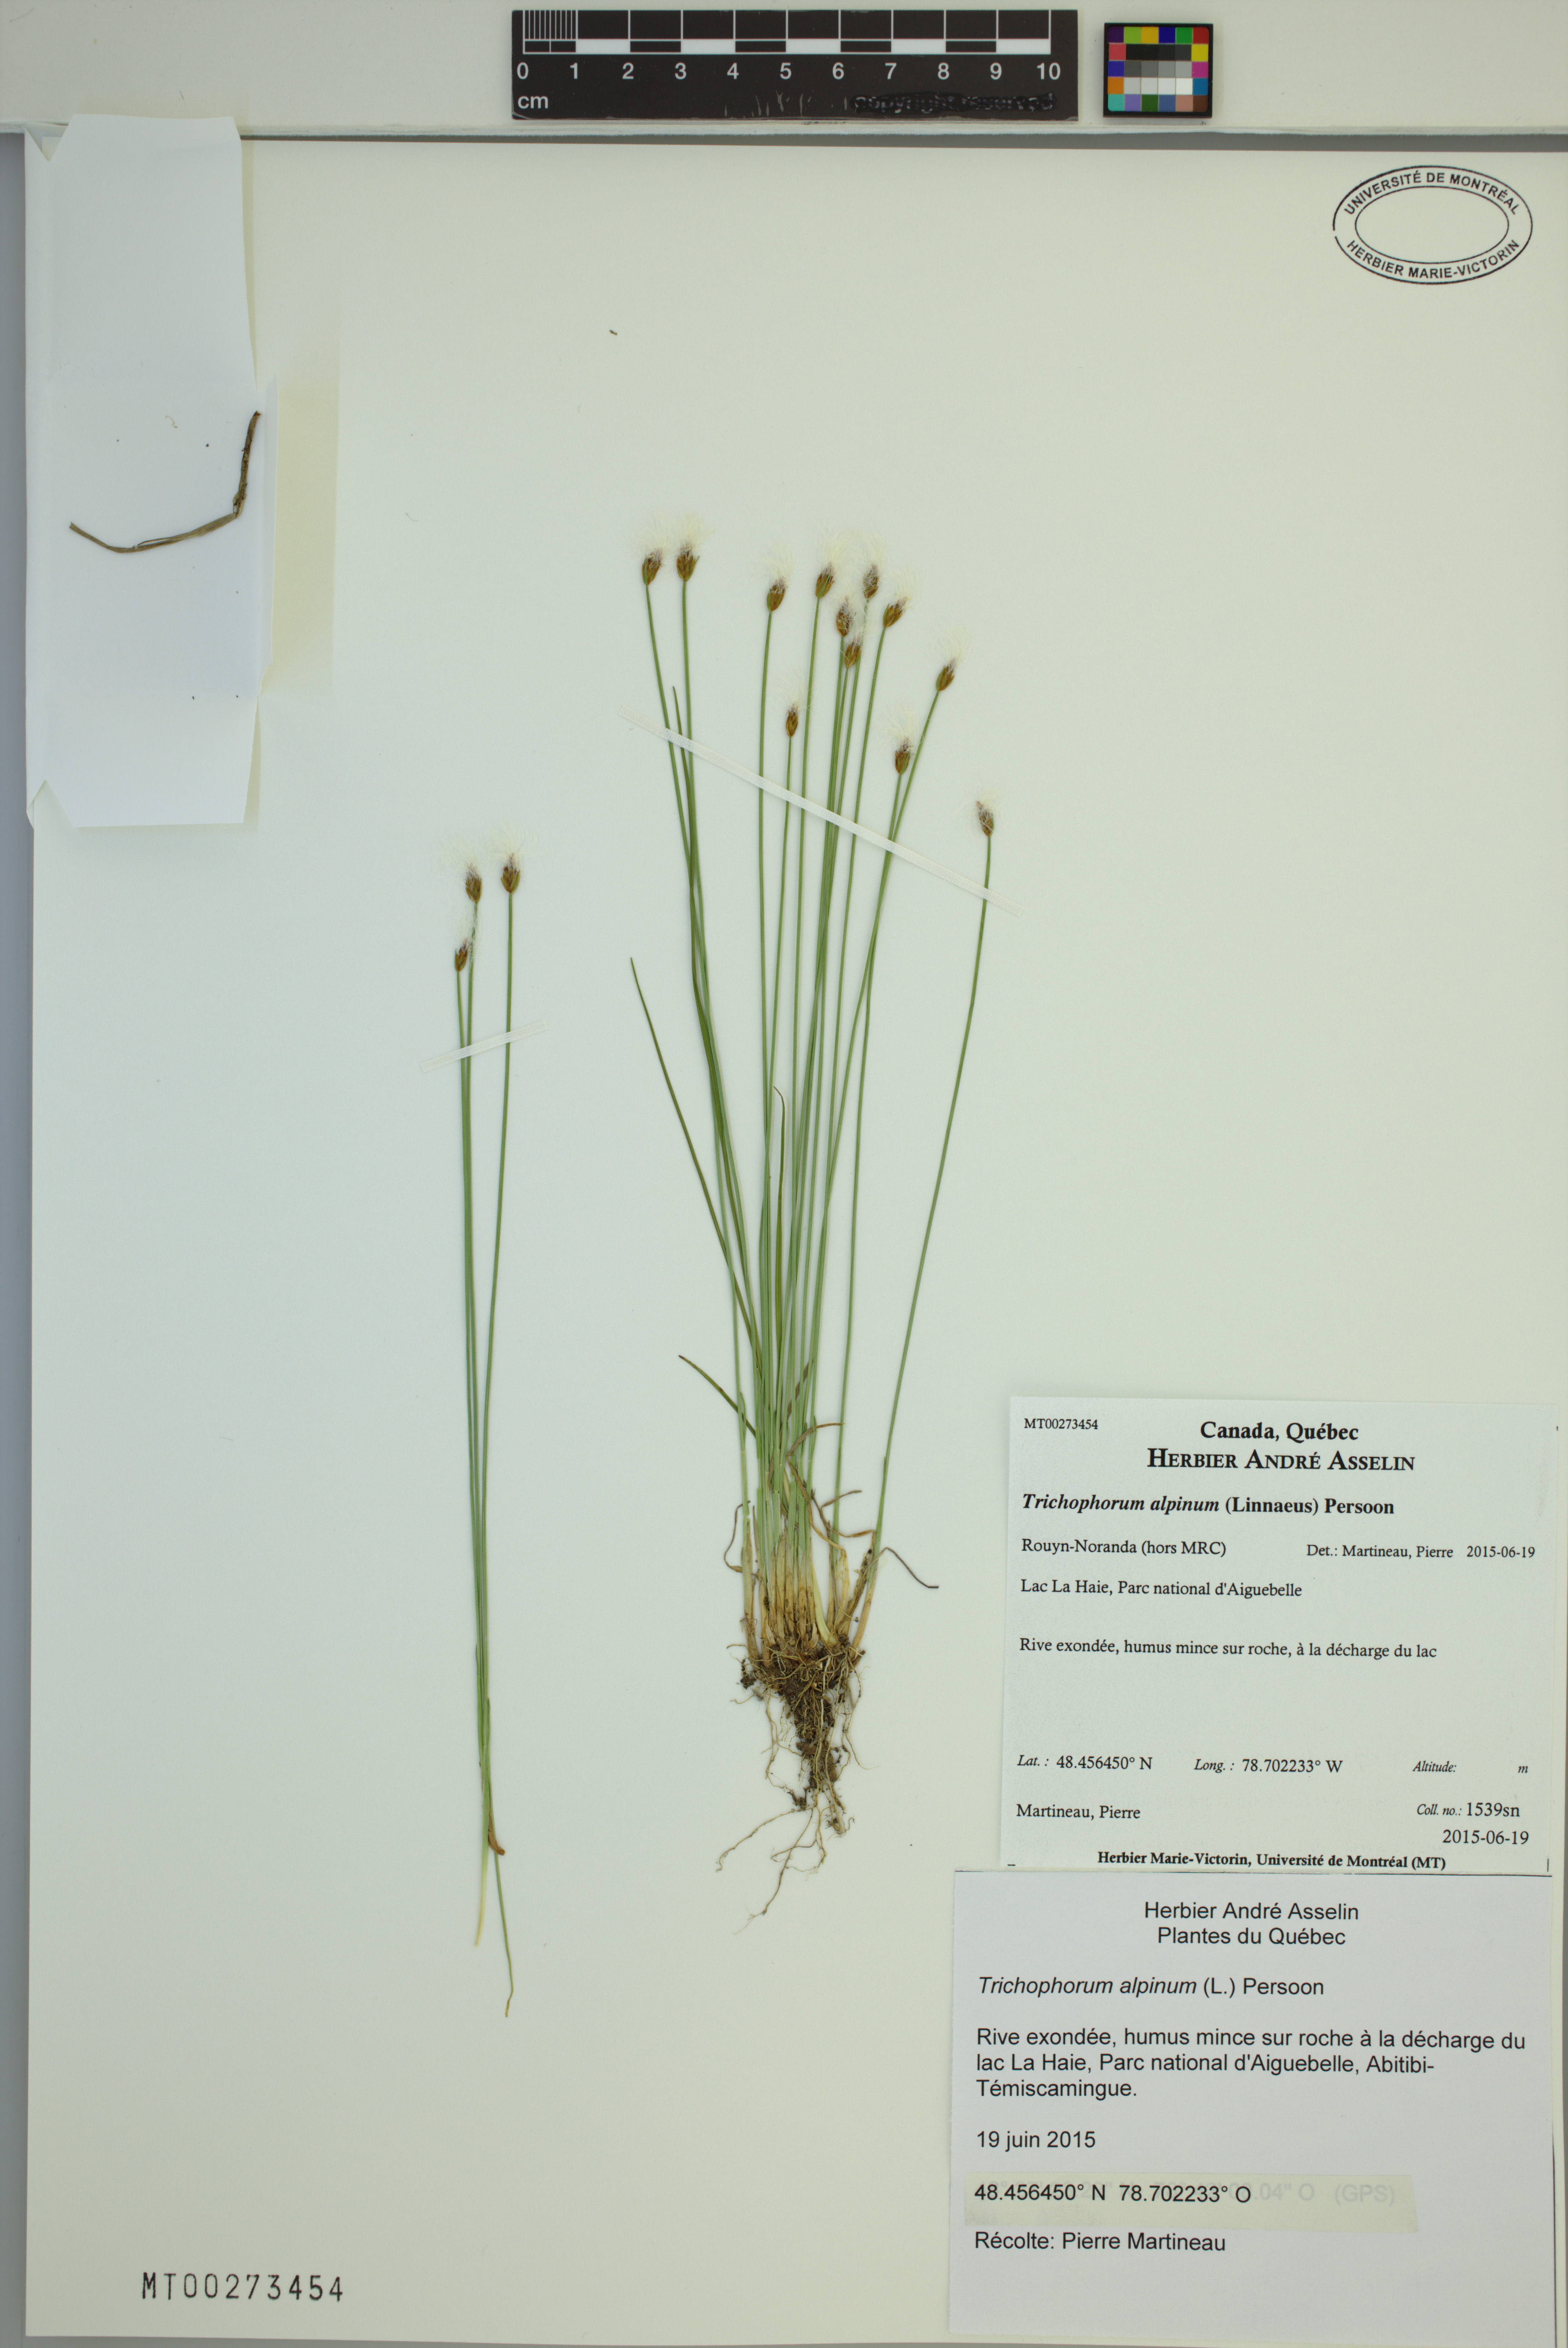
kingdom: Plantae
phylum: Tracheophyta
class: Liliopsida
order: Poales
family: Cyperaceae
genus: Trichophorum
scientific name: Trichophorum alpinum
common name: Alpine bulrush
